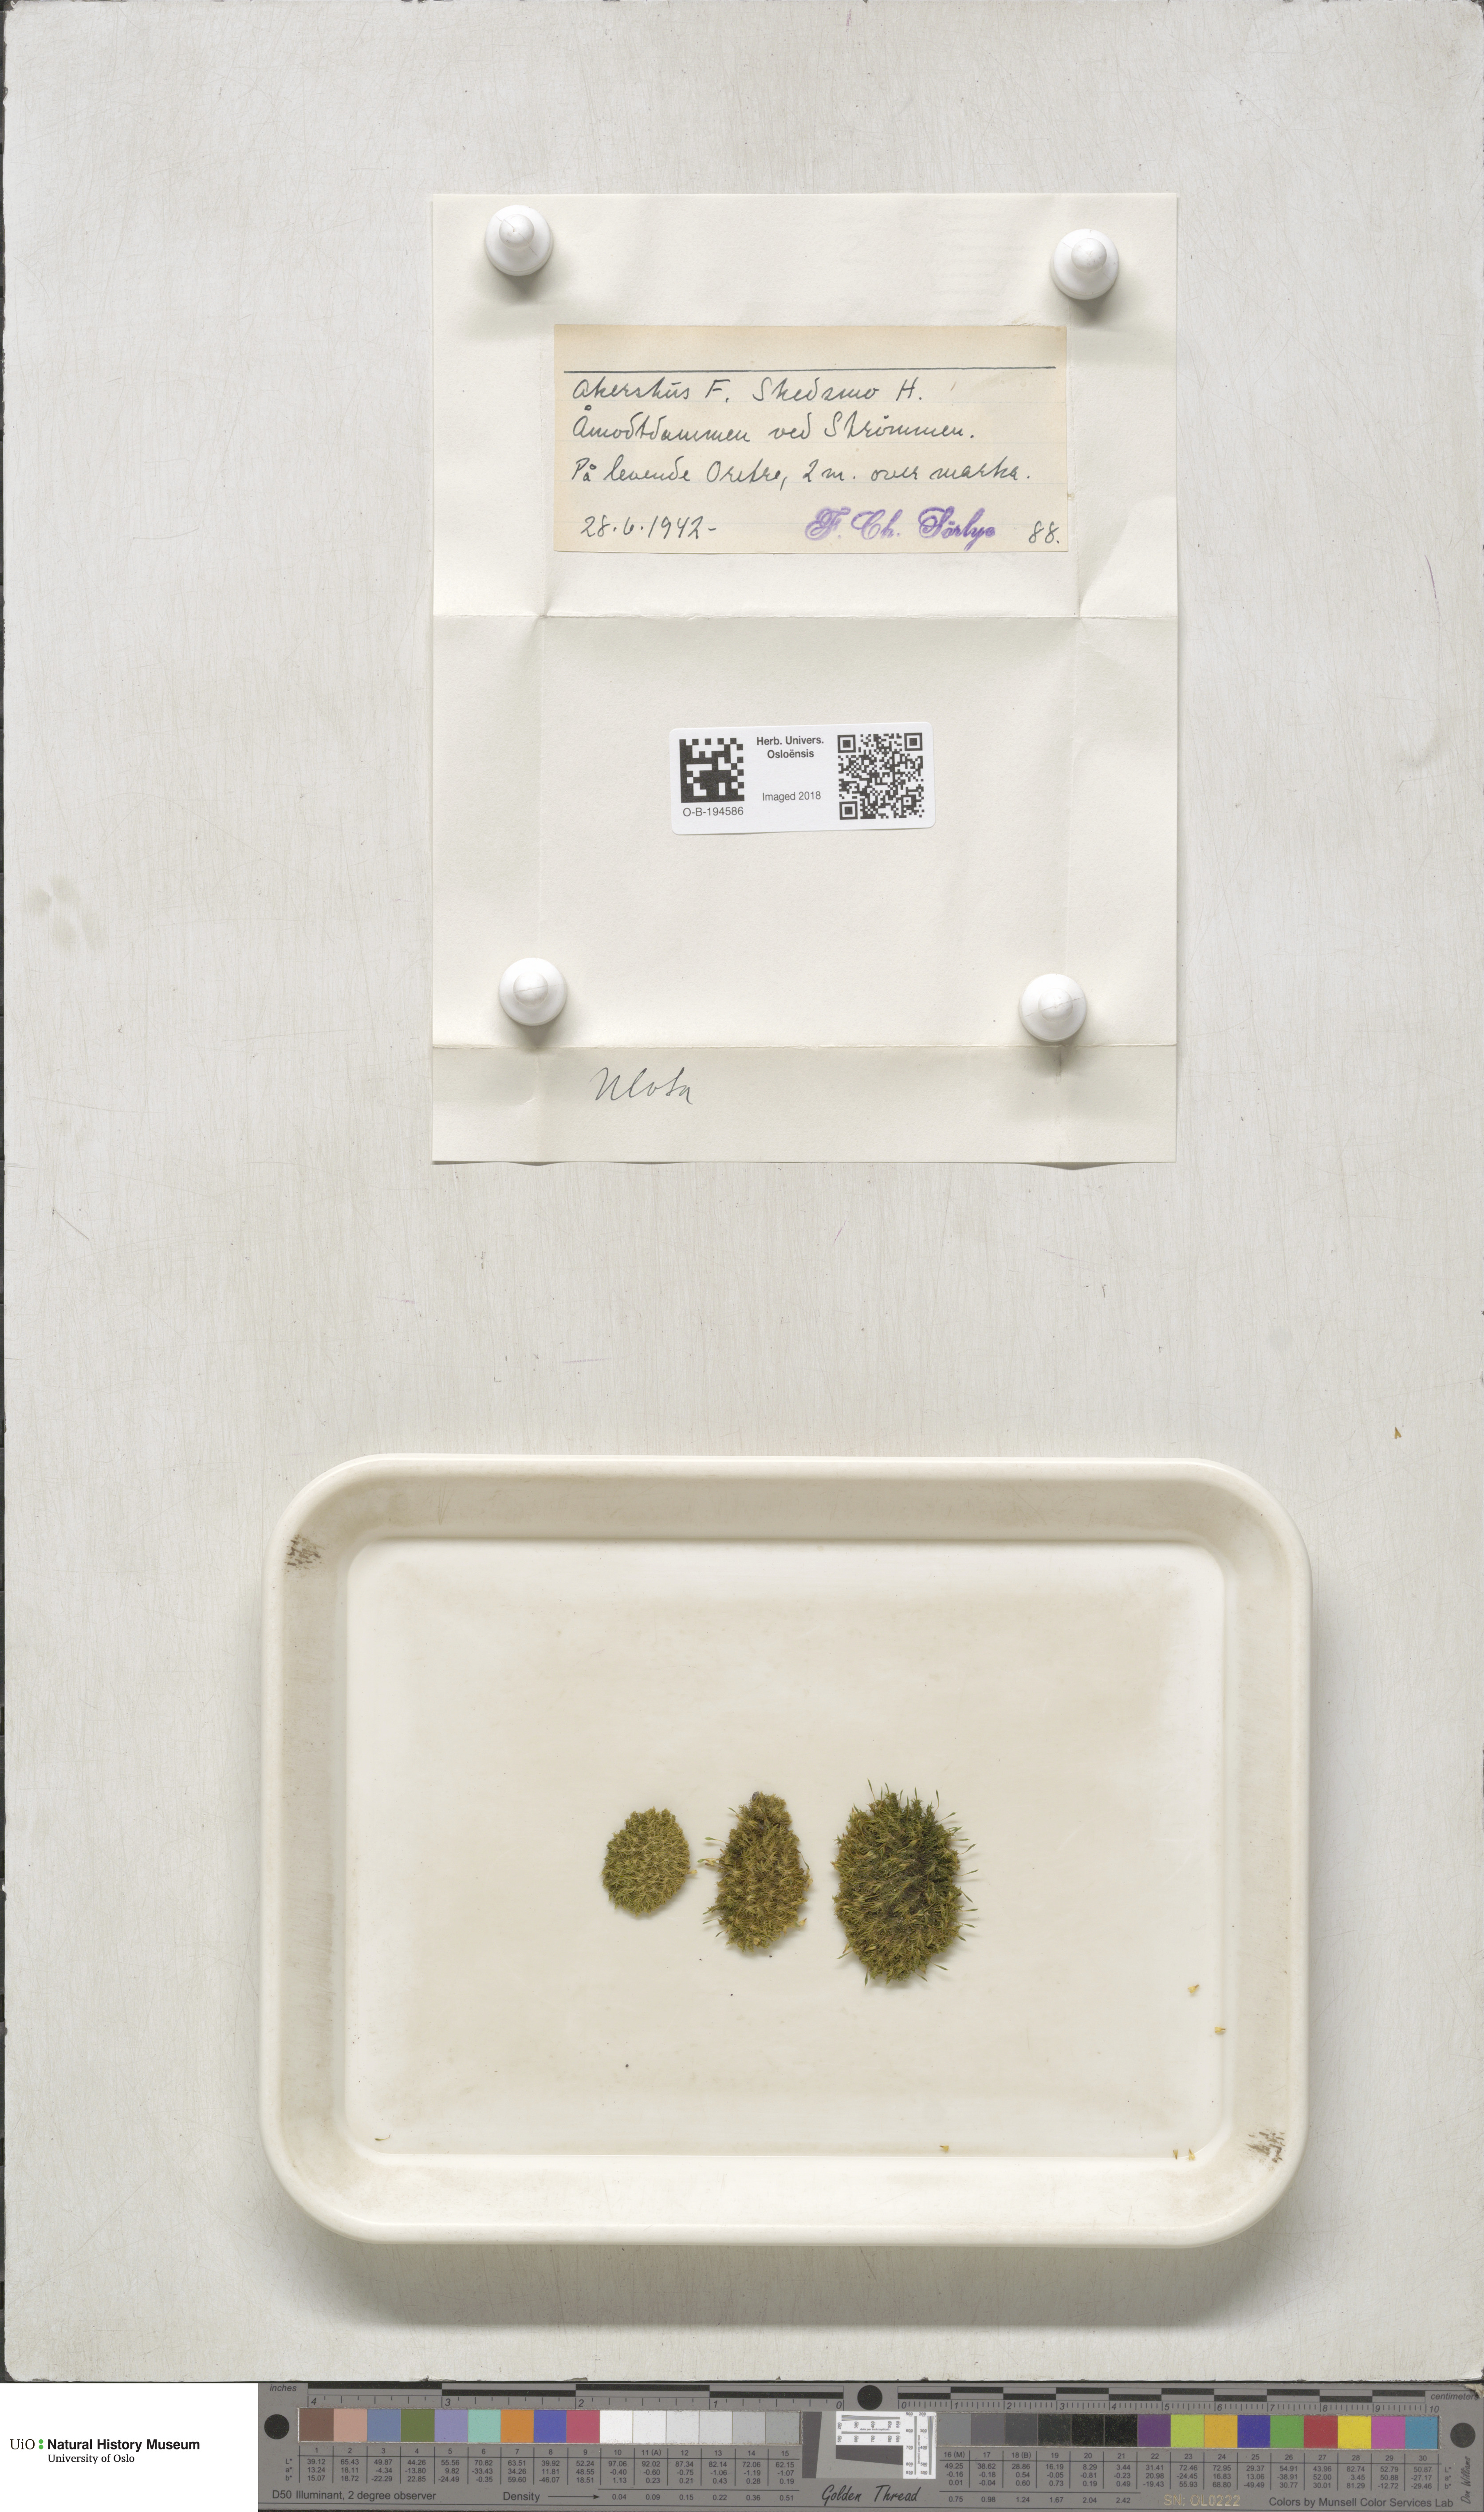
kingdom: Plantae
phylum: Bryophyta
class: Bryopsida
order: Orthotrichales
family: Orthotrichaceae
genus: Ulota
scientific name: Ulota
